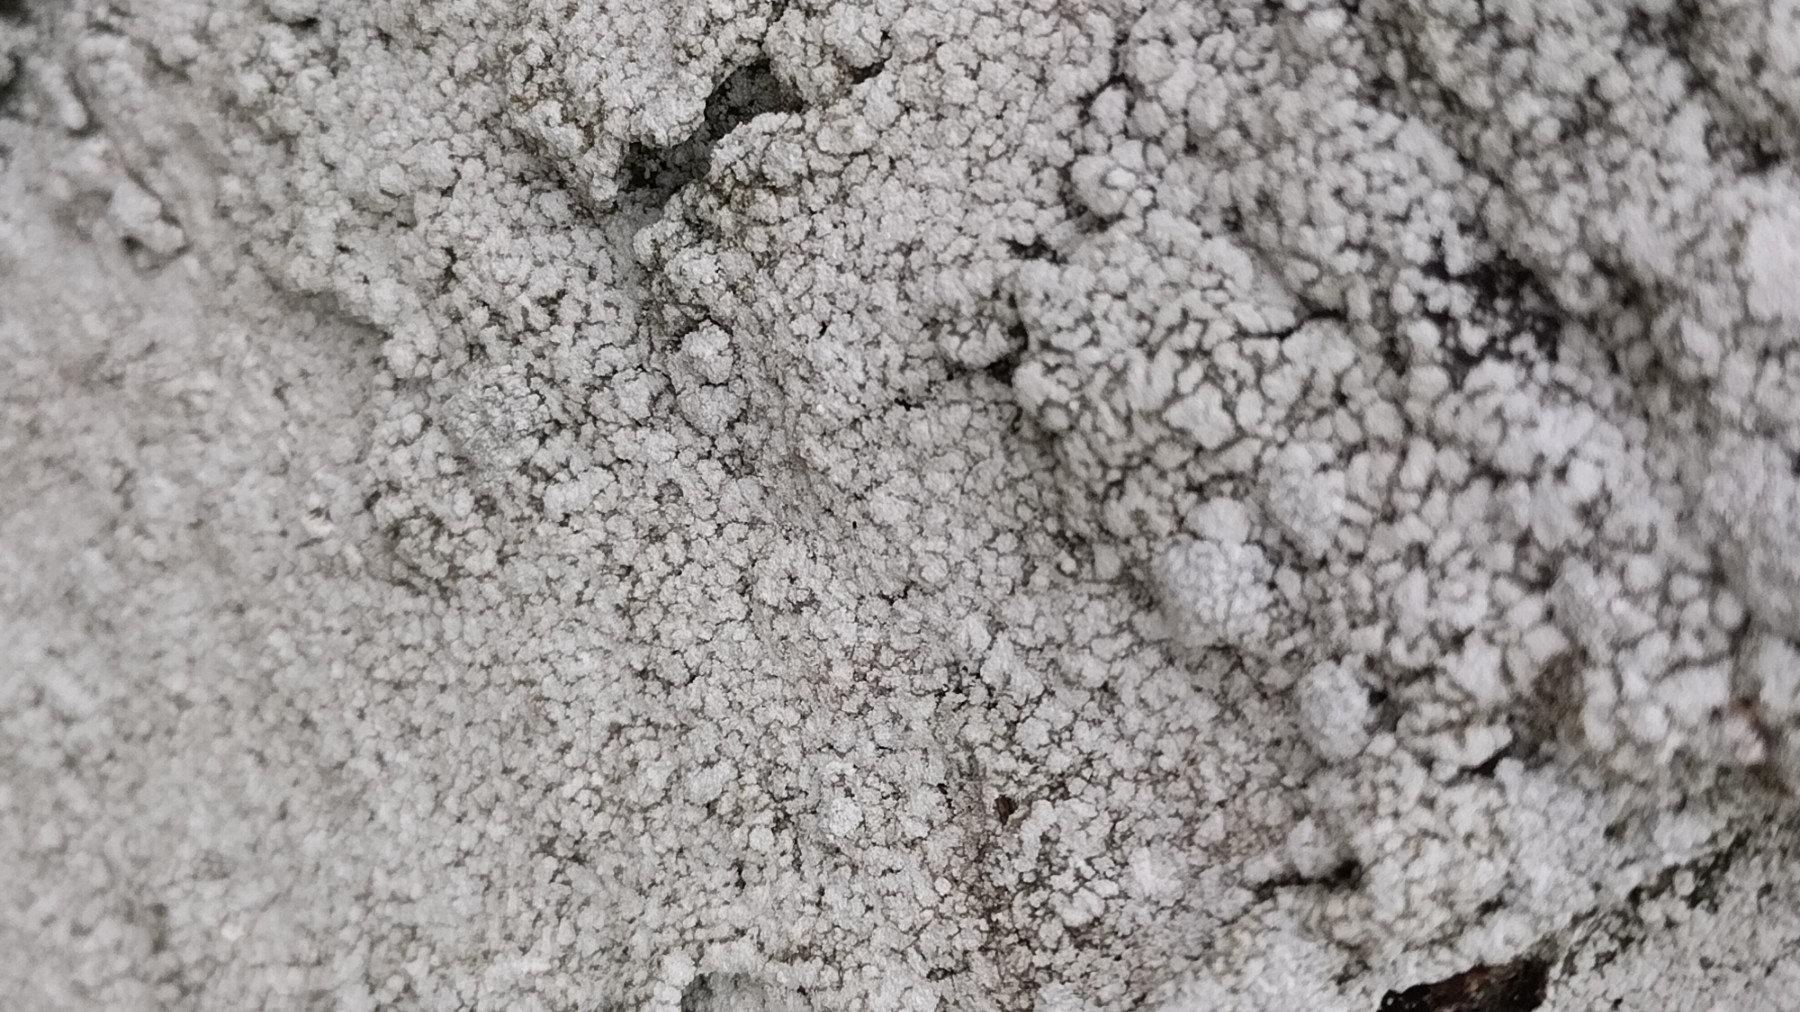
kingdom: Fungi
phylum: Ascomycota
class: Lecanoromycetes
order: Pertusariales
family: Pertusariaceae
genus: Lepra
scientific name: Lepra amara
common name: bitter prikvortelav
